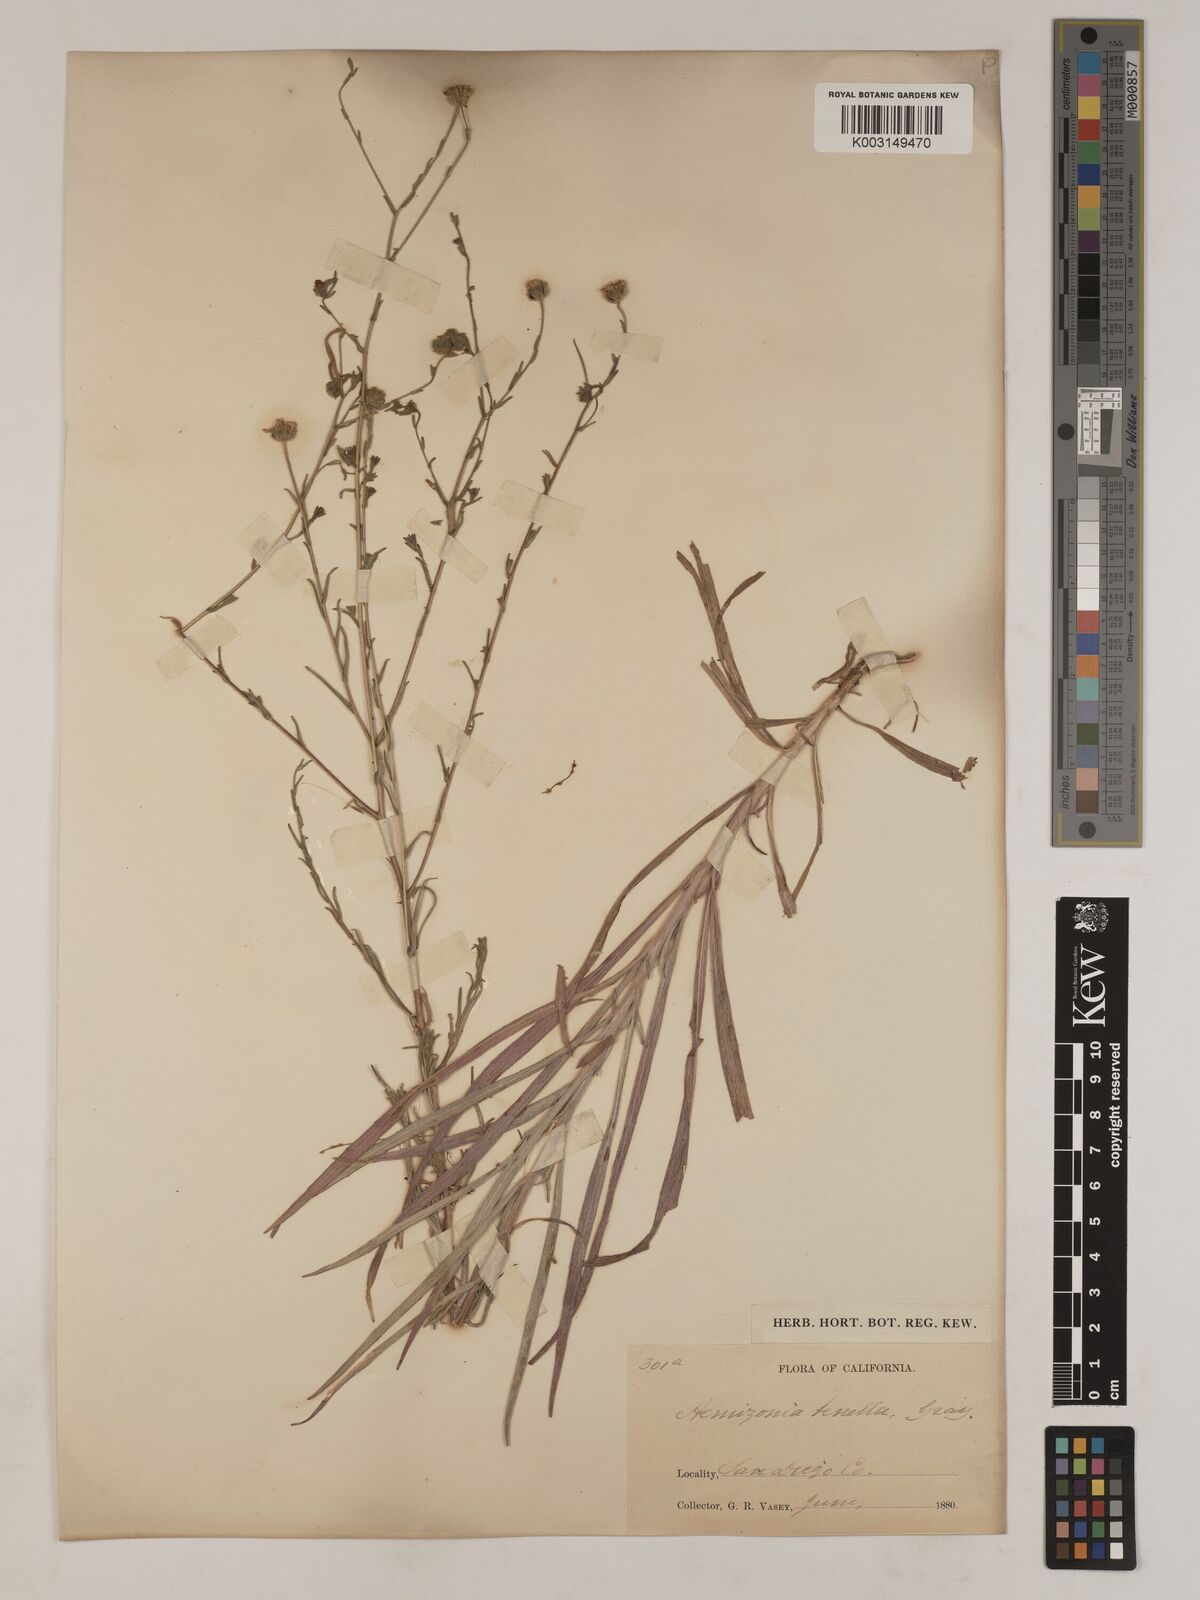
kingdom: Plantae
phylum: Tracheophyta
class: Magnoliopsida
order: Asterales
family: Asteraceae
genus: Osmadenia
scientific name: Osmadenia tenella
